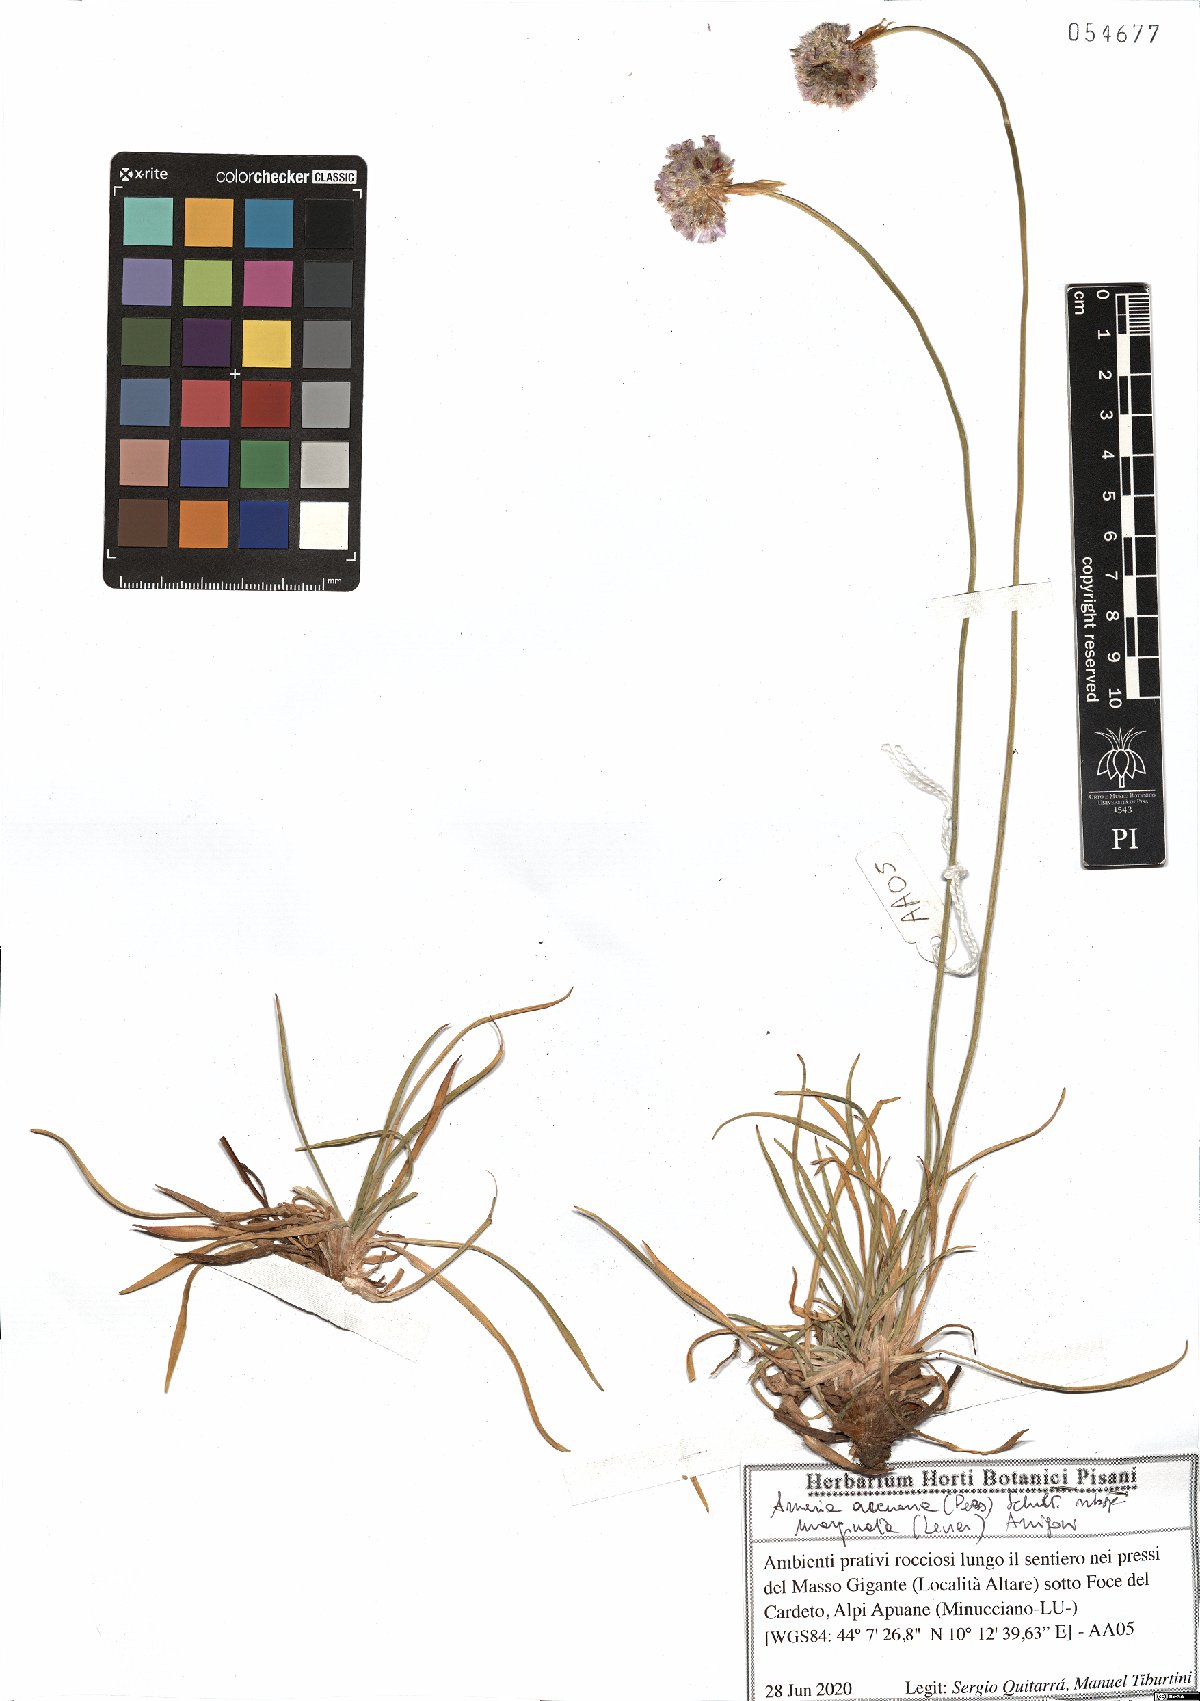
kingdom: Plantae
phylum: Tracheophyta
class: Magnoliopsida
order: Caryophyllales
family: Plumbaginaceae
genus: Armeria
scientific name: Armeria arenaria
